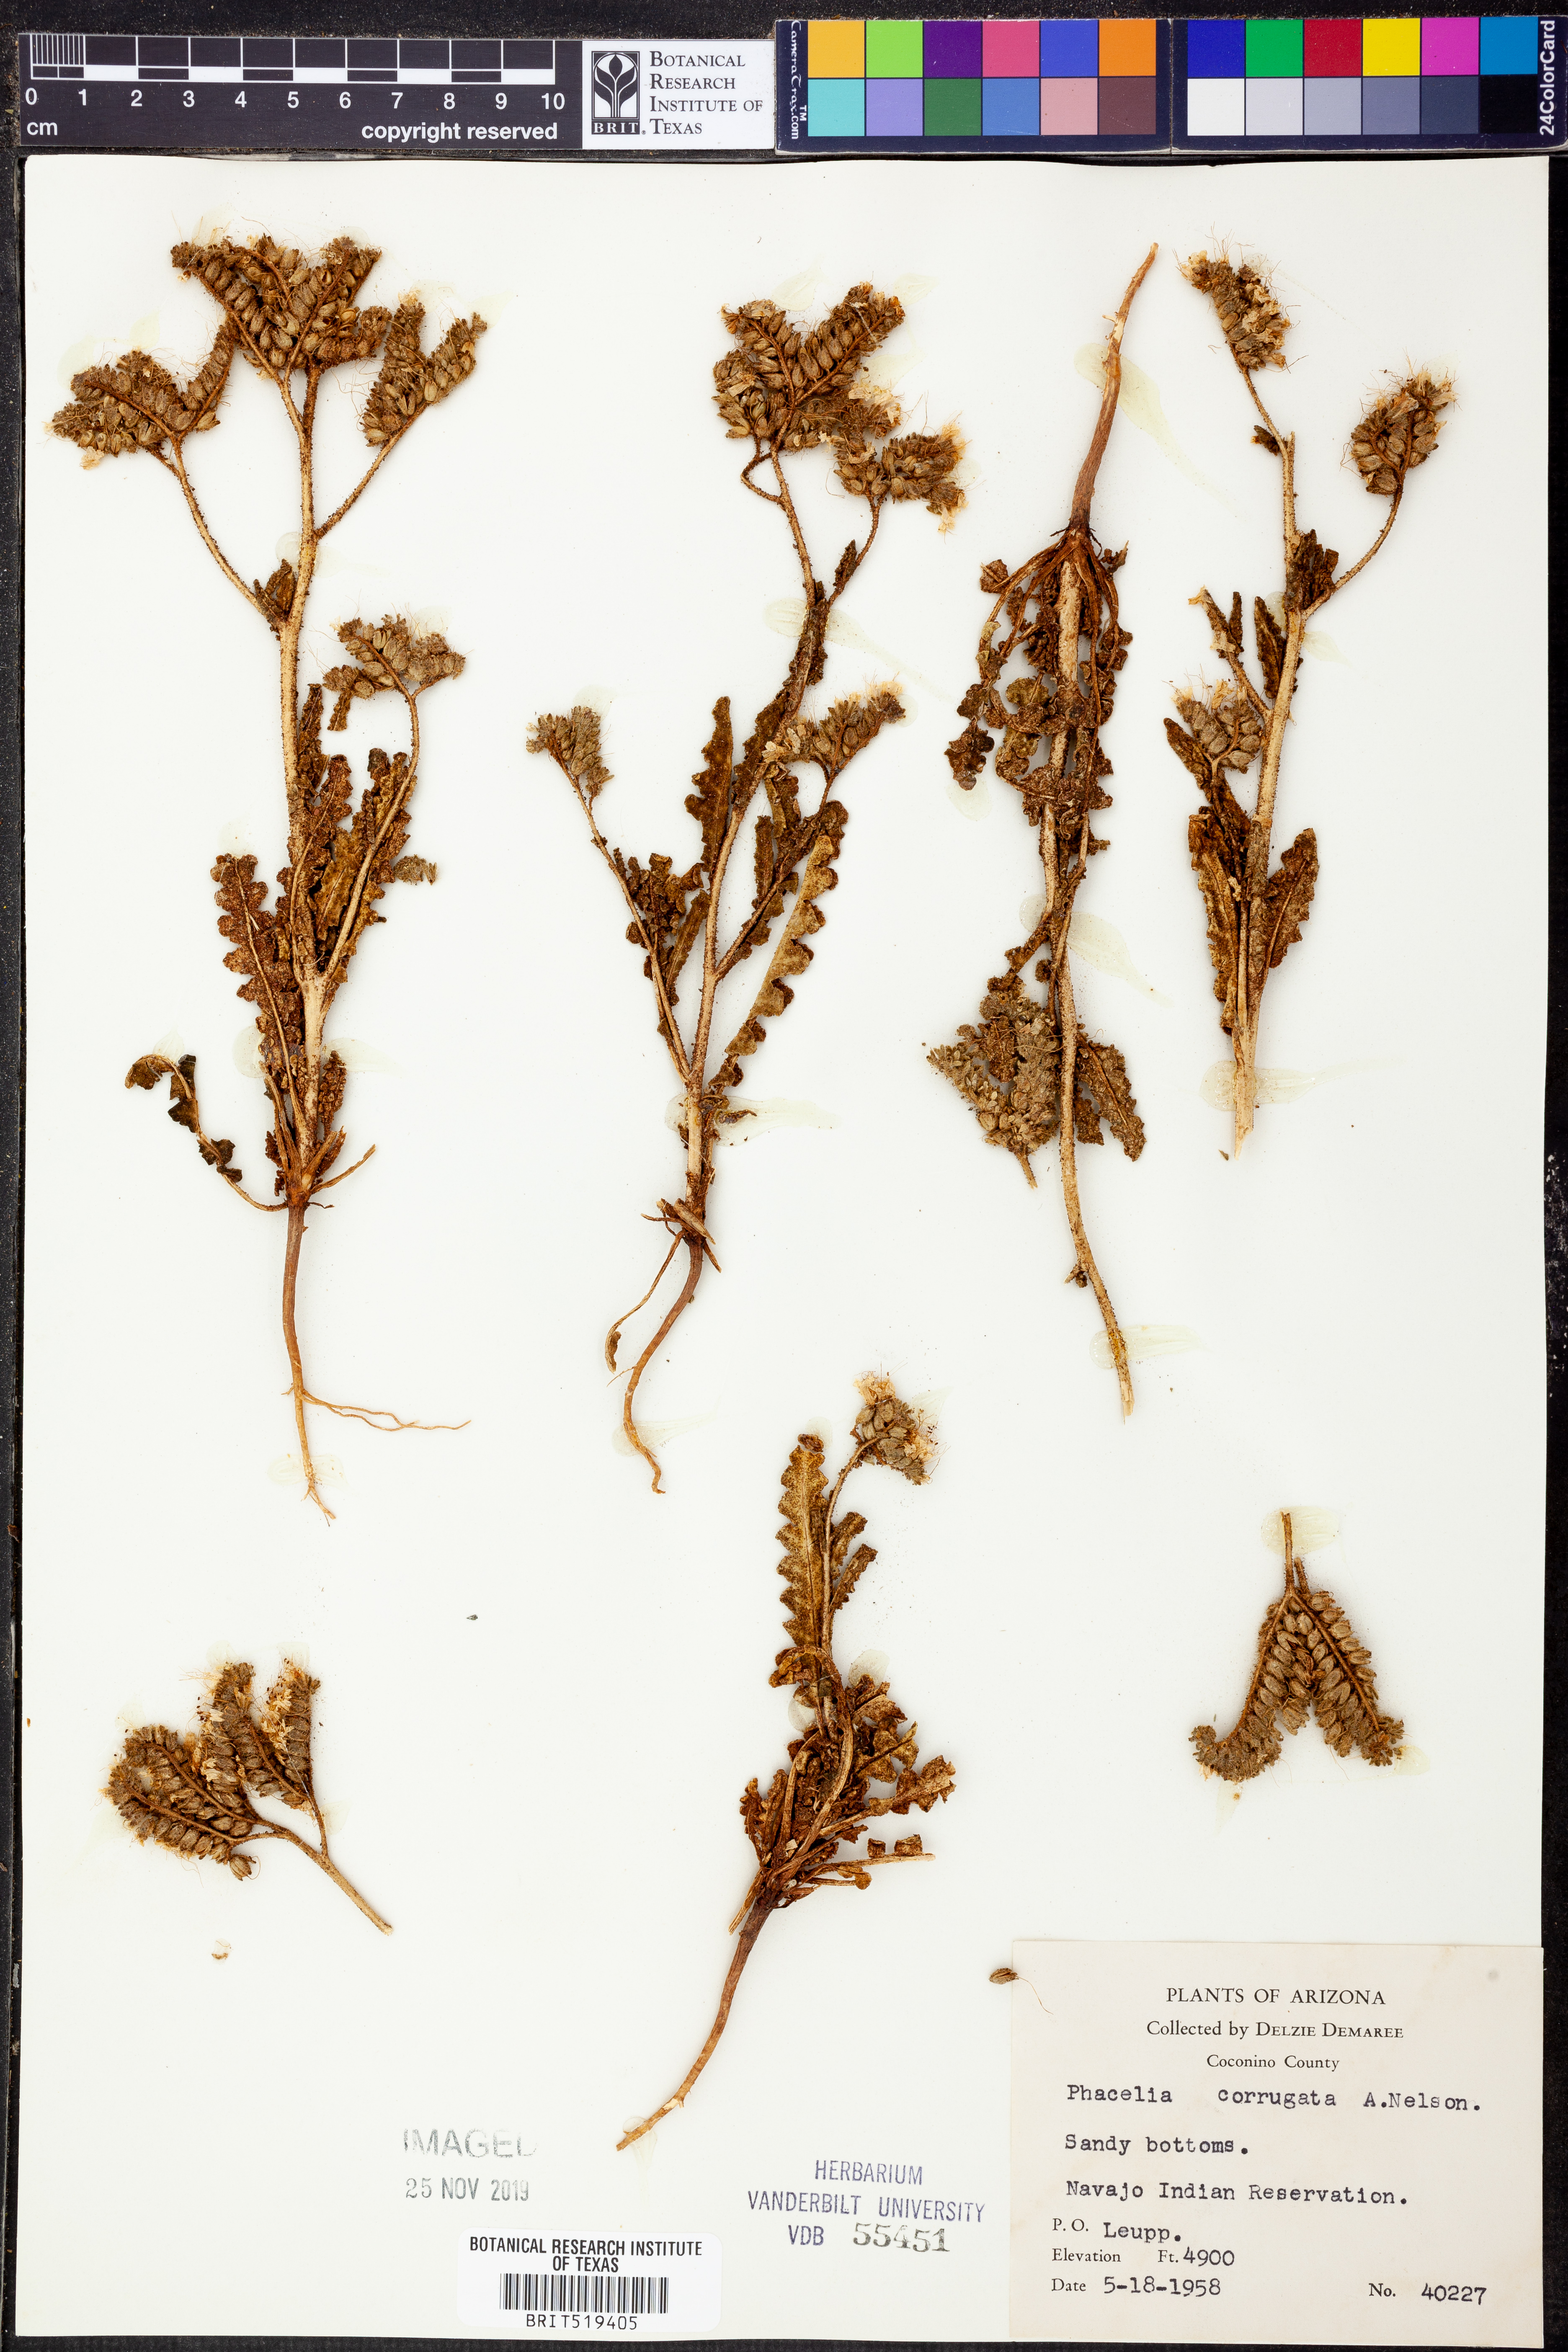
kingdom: Plantae
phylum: Tracheophyta
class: Magnoliopsida
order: Boraginales
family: Hydrophyllaceae
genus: Phacelia
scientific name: Phacelia corrugata
